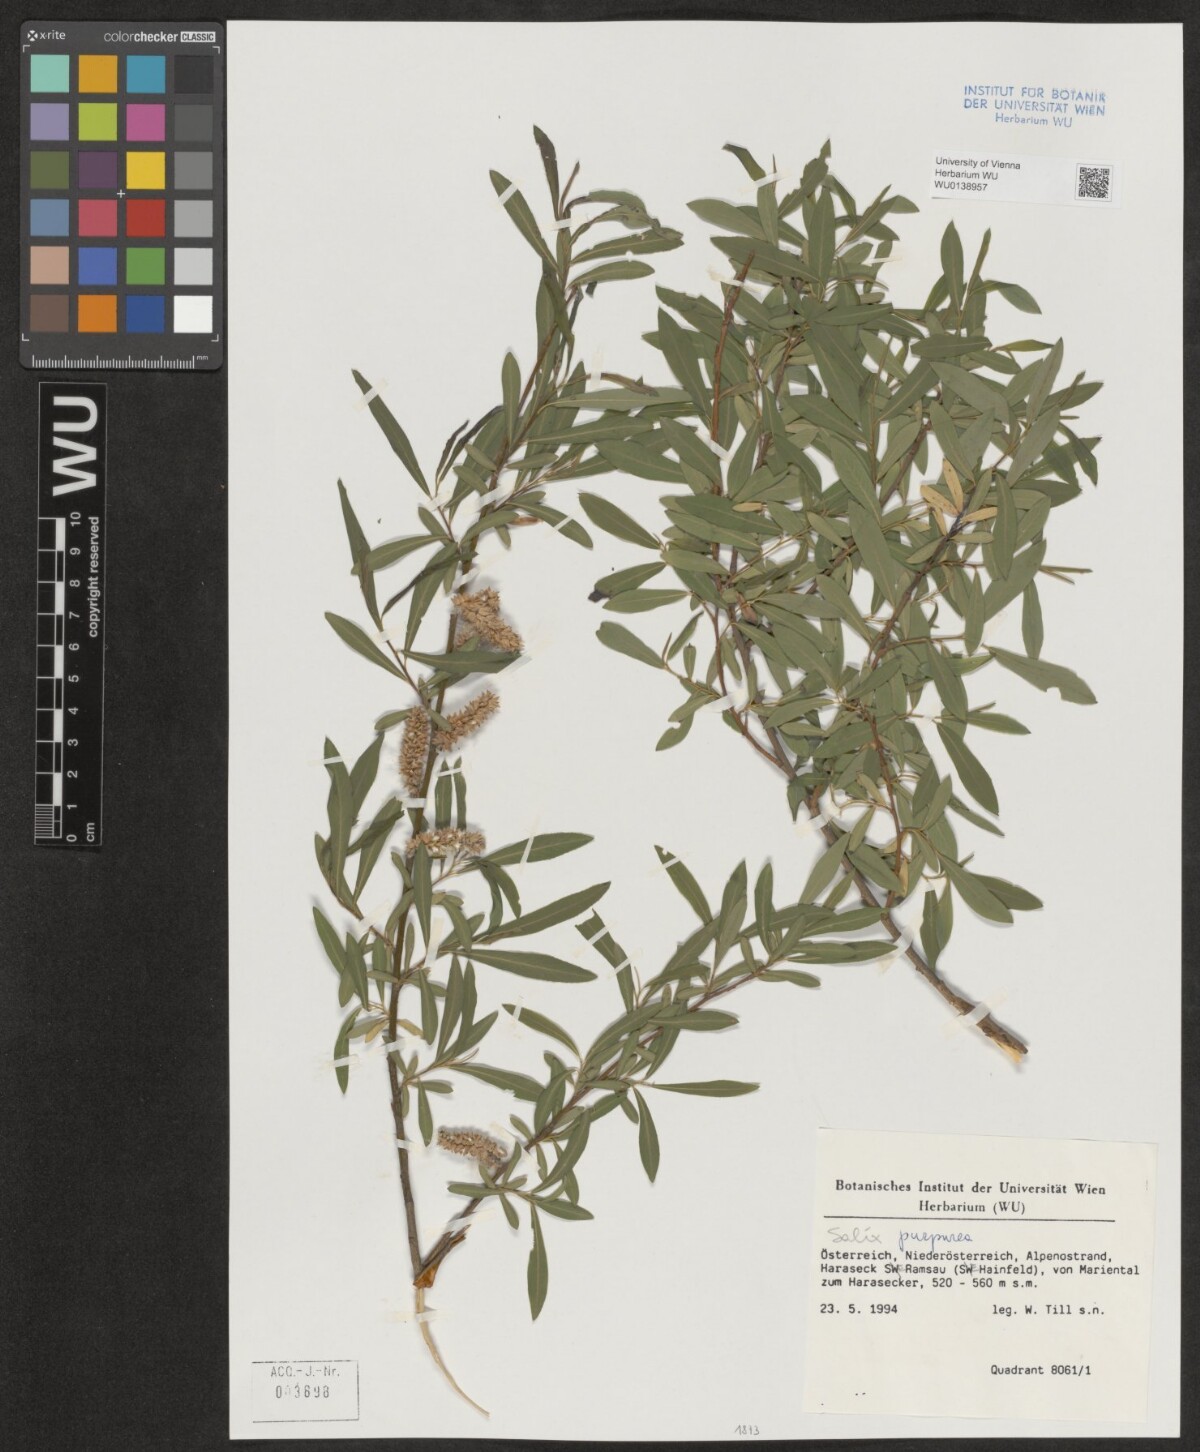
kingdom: Plantae
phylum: Tracheophyta
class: Magnoliopsida
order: Malpighiales
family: Salicaceae
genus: Salix
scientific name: Salix purpurea
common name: Purple willow
